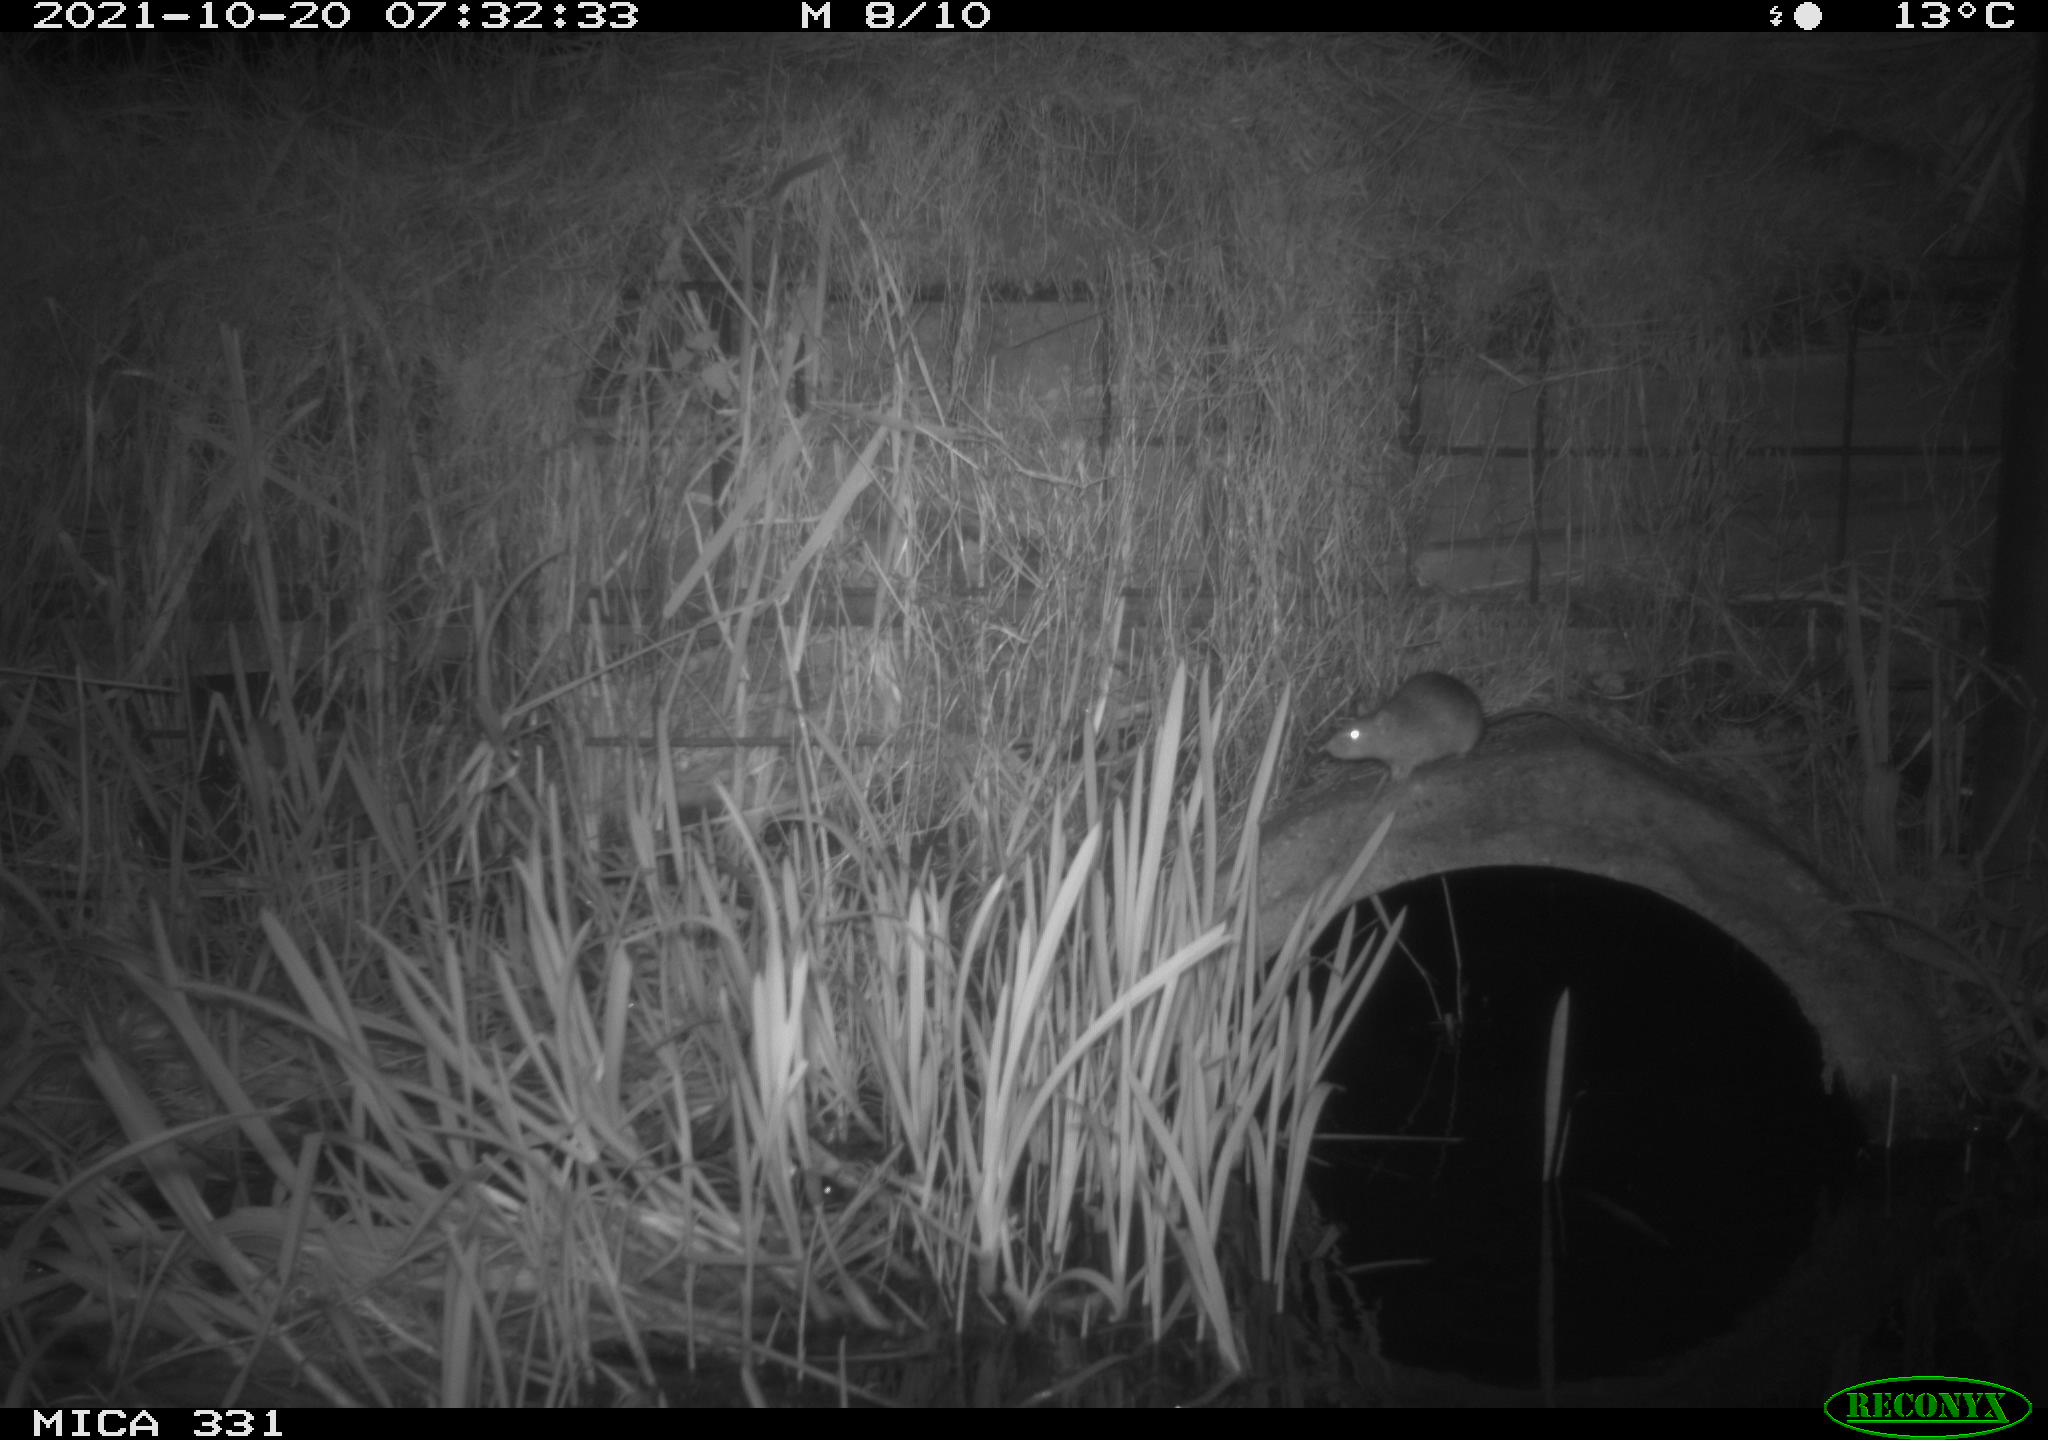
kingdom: Animalia
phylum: Chordata
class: Mammalia
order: Rodentia
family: Muridae
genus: Rattus
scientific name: Rattus norvegicus
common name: Brown rat
